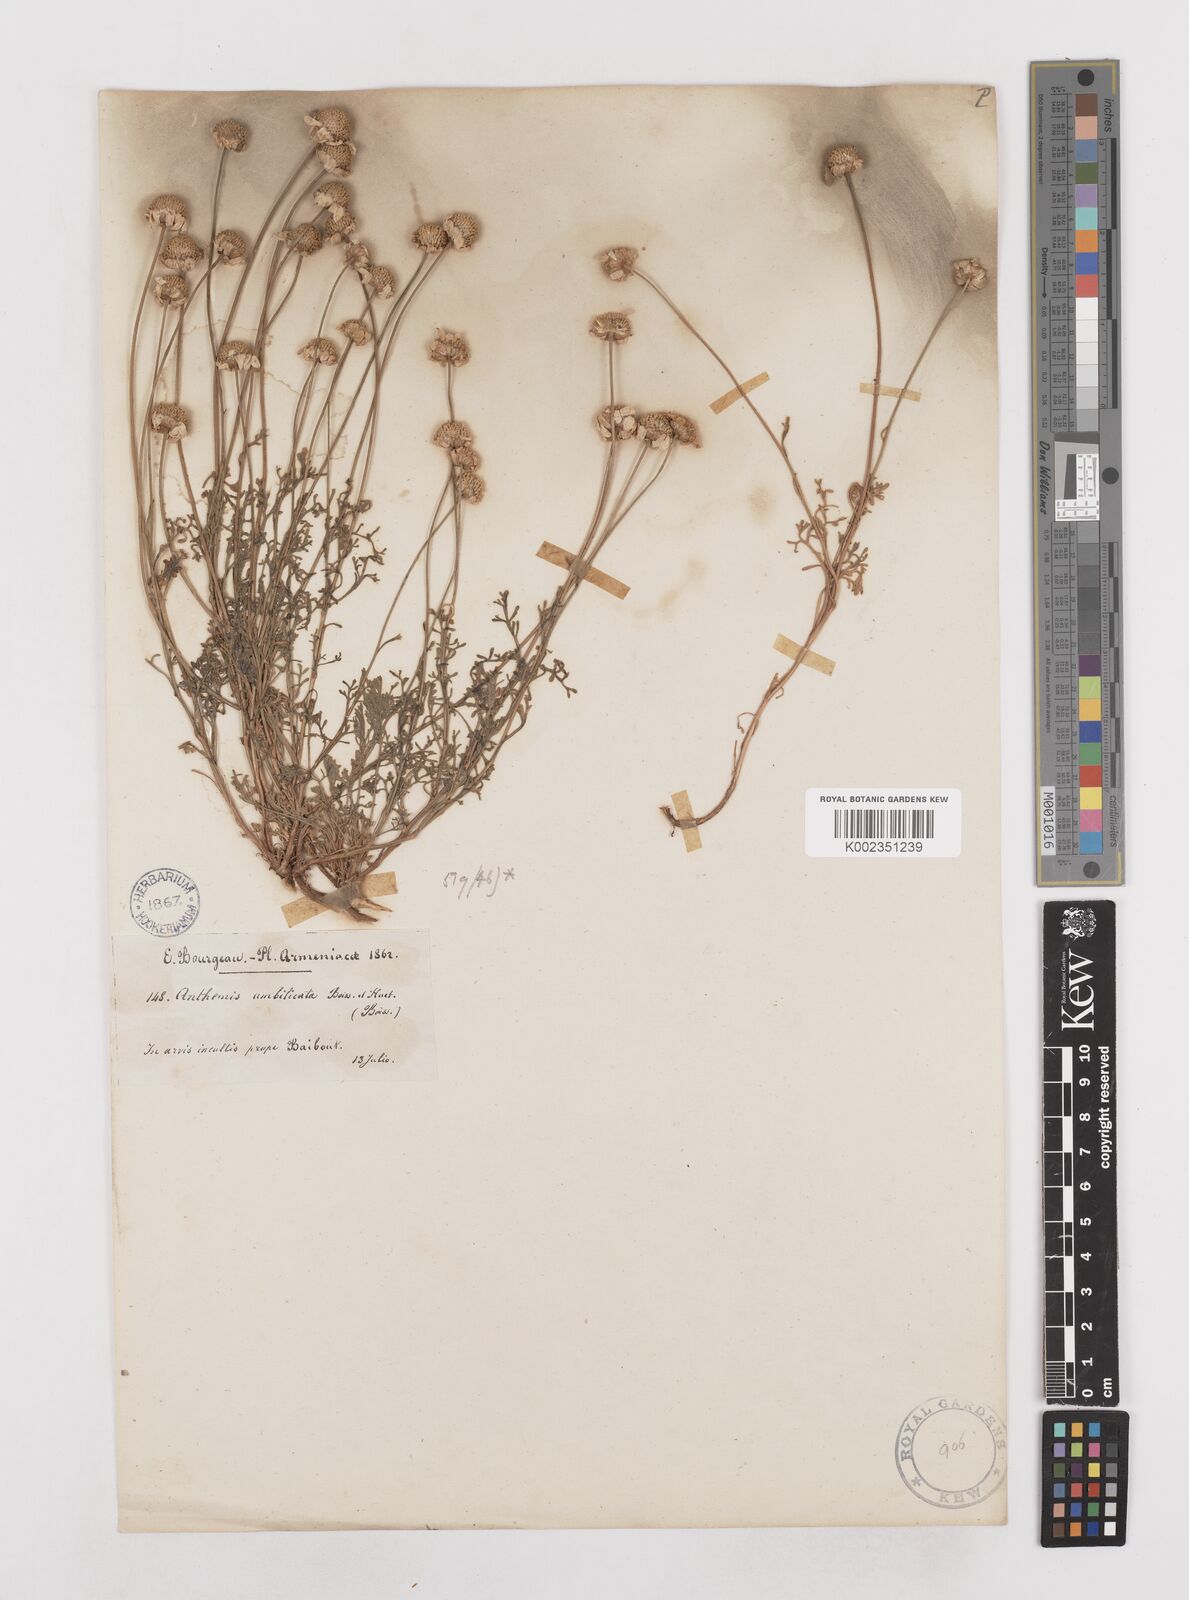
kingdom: Plantae
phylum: Tracheophyta
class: Magnoliopsida
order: Asterales
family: Asteraceae
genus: Anthemis
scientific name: Anthemis cretica
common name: Mountain dog-daisy
